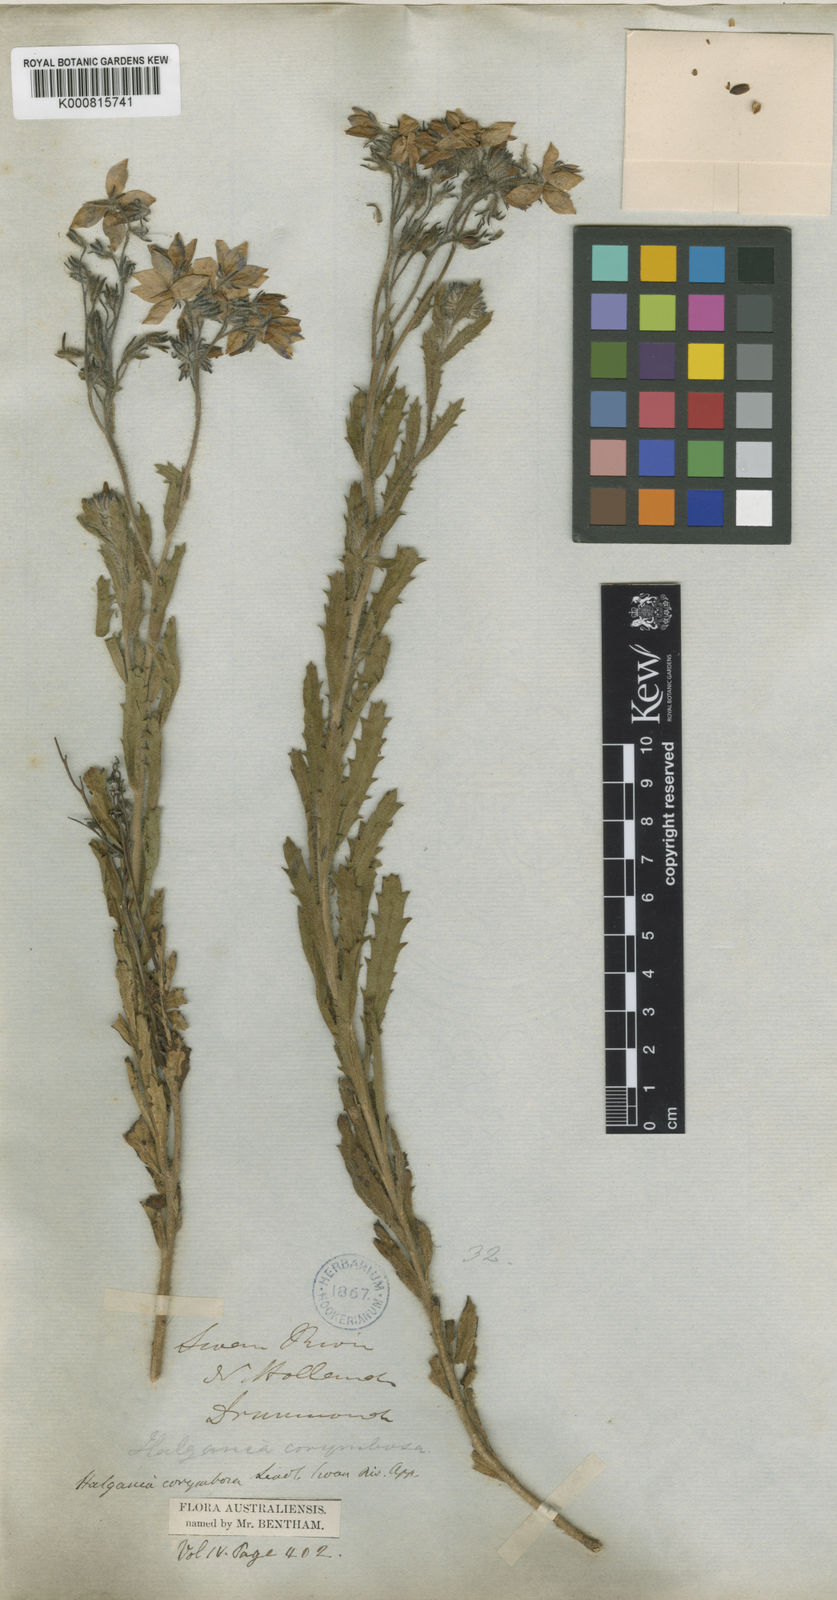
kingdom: Plantae
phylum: Tracheophyta
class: Magnoliopsida
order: Boraginales
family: Ehretiaceae
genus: Halgania
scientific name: Halgania corymbosa
